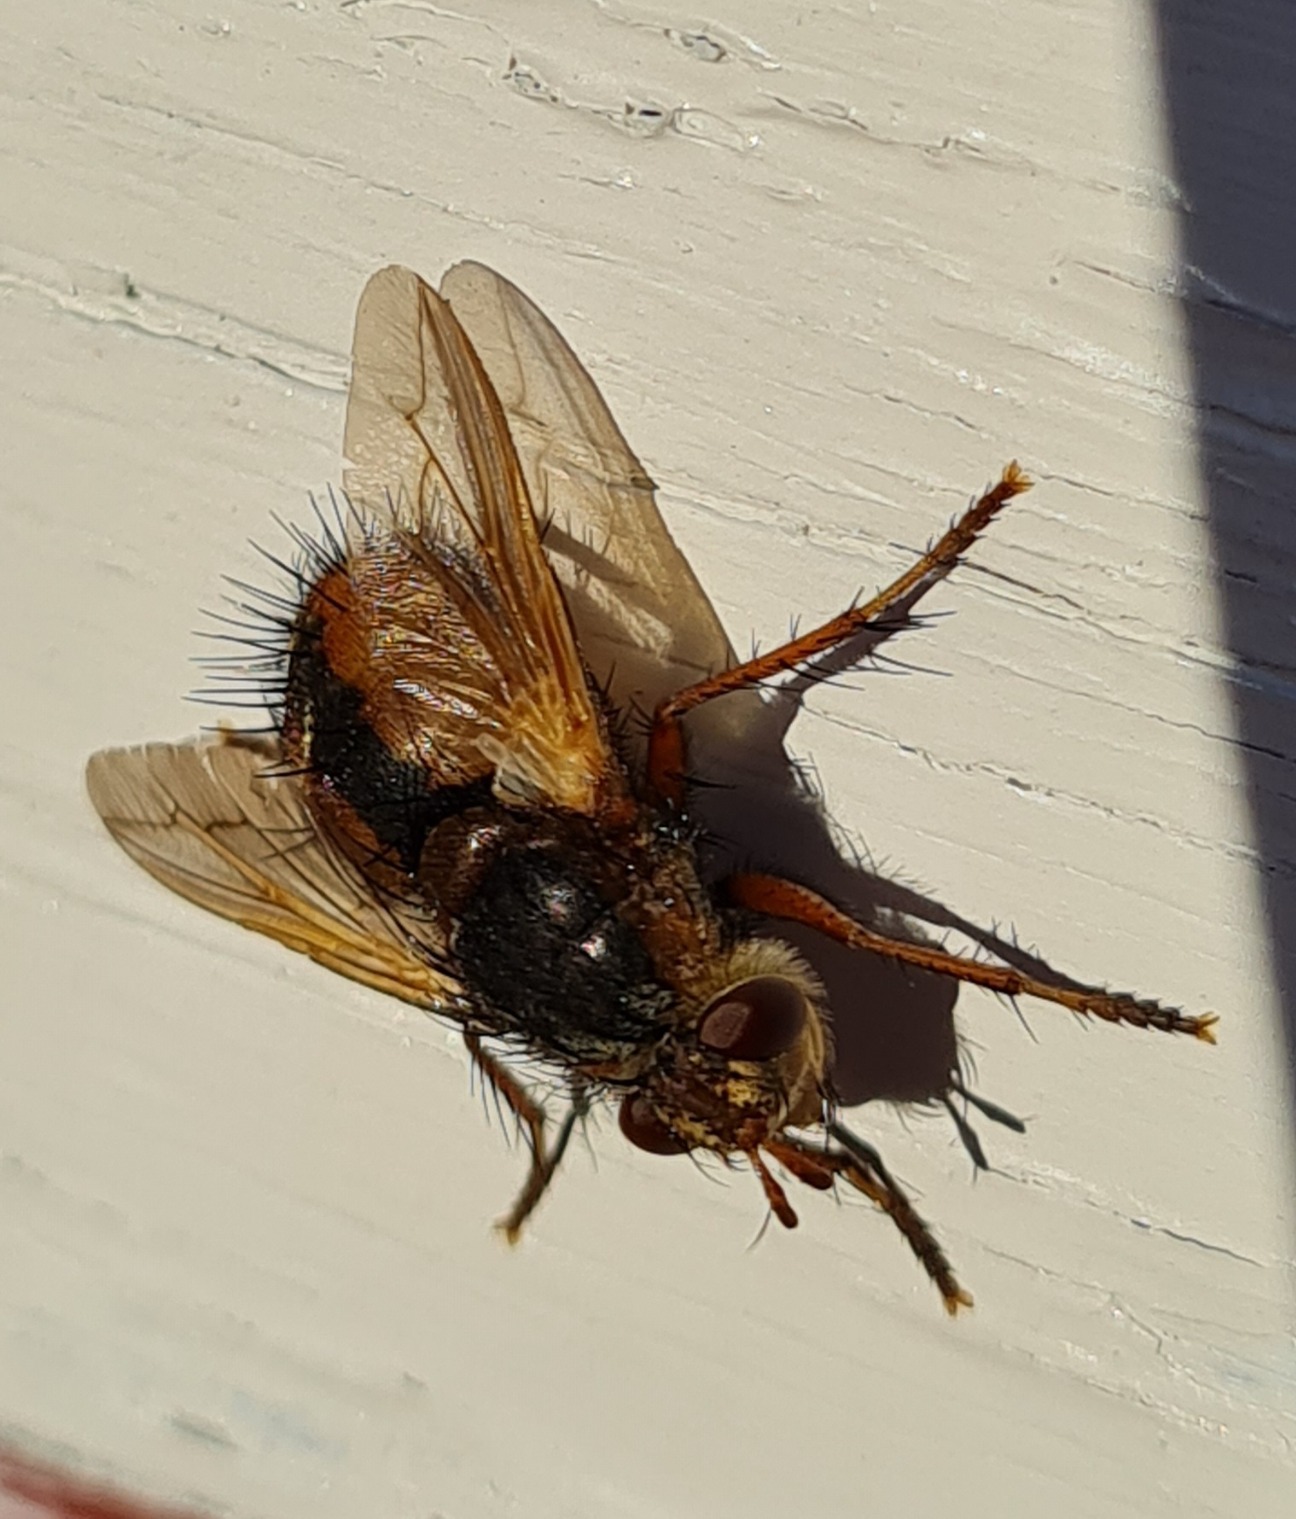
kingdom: Animalia
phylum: Arthropoda
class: Insecta
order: Diptera
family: Tachinidae
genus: Tachina
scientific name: Tachina fera
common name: Mellemfluen oskar
